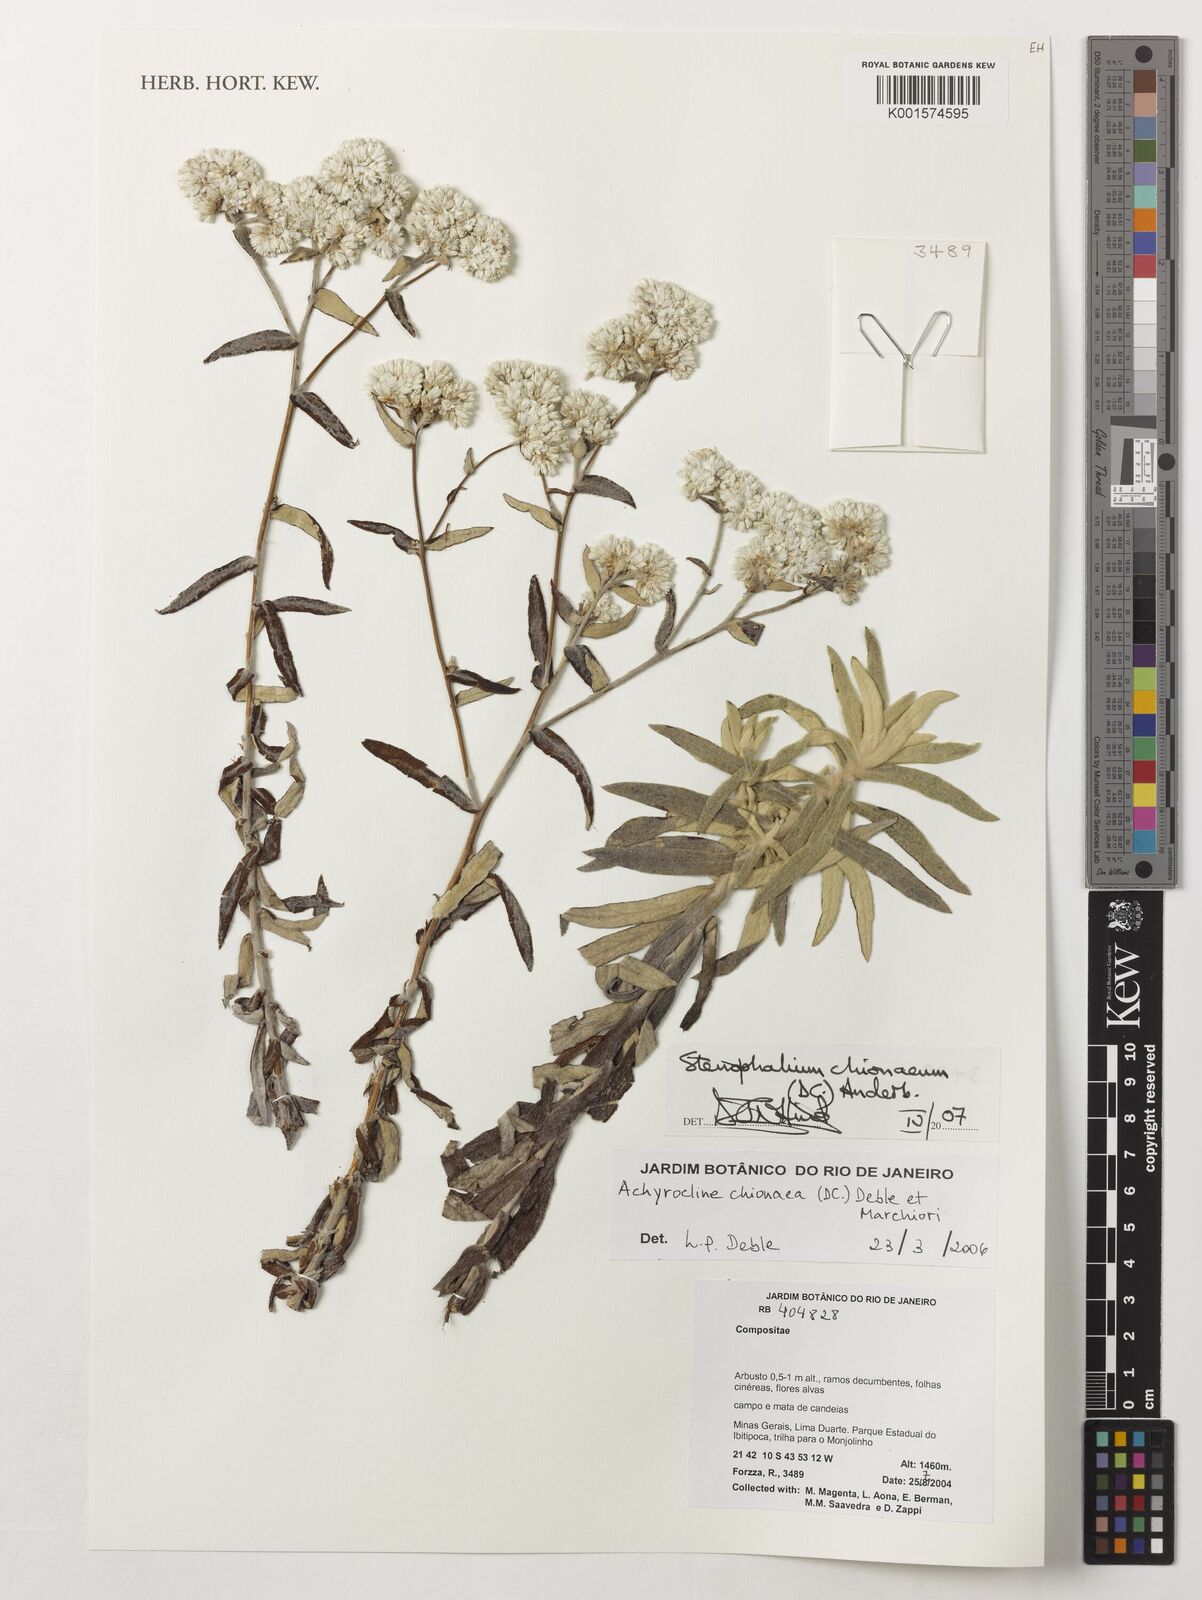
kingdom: Plantae
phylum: Tracheophyta
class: Magnoliopsida
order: Asterales
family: Asteraceae
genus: Achyrocline
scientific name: Achyrocline chionaea
